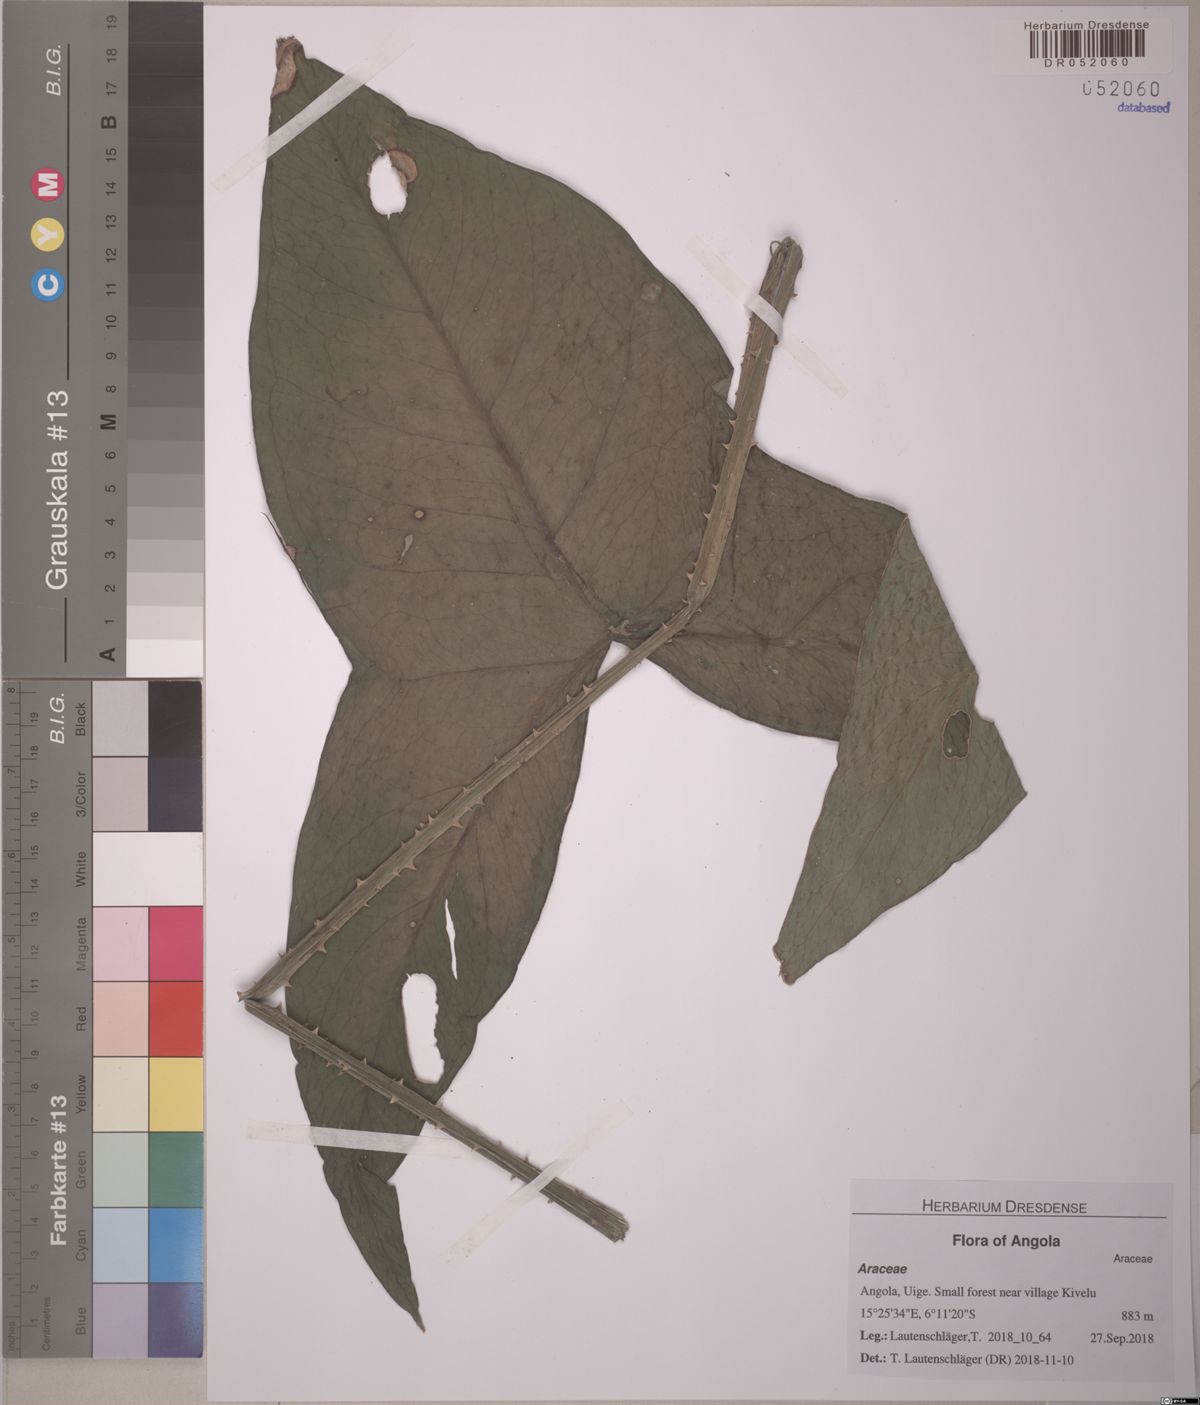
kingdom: Plantae
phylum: Tracheophyta
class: Liliopsida
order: Alismatales
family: Araceae
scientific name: Araceae
